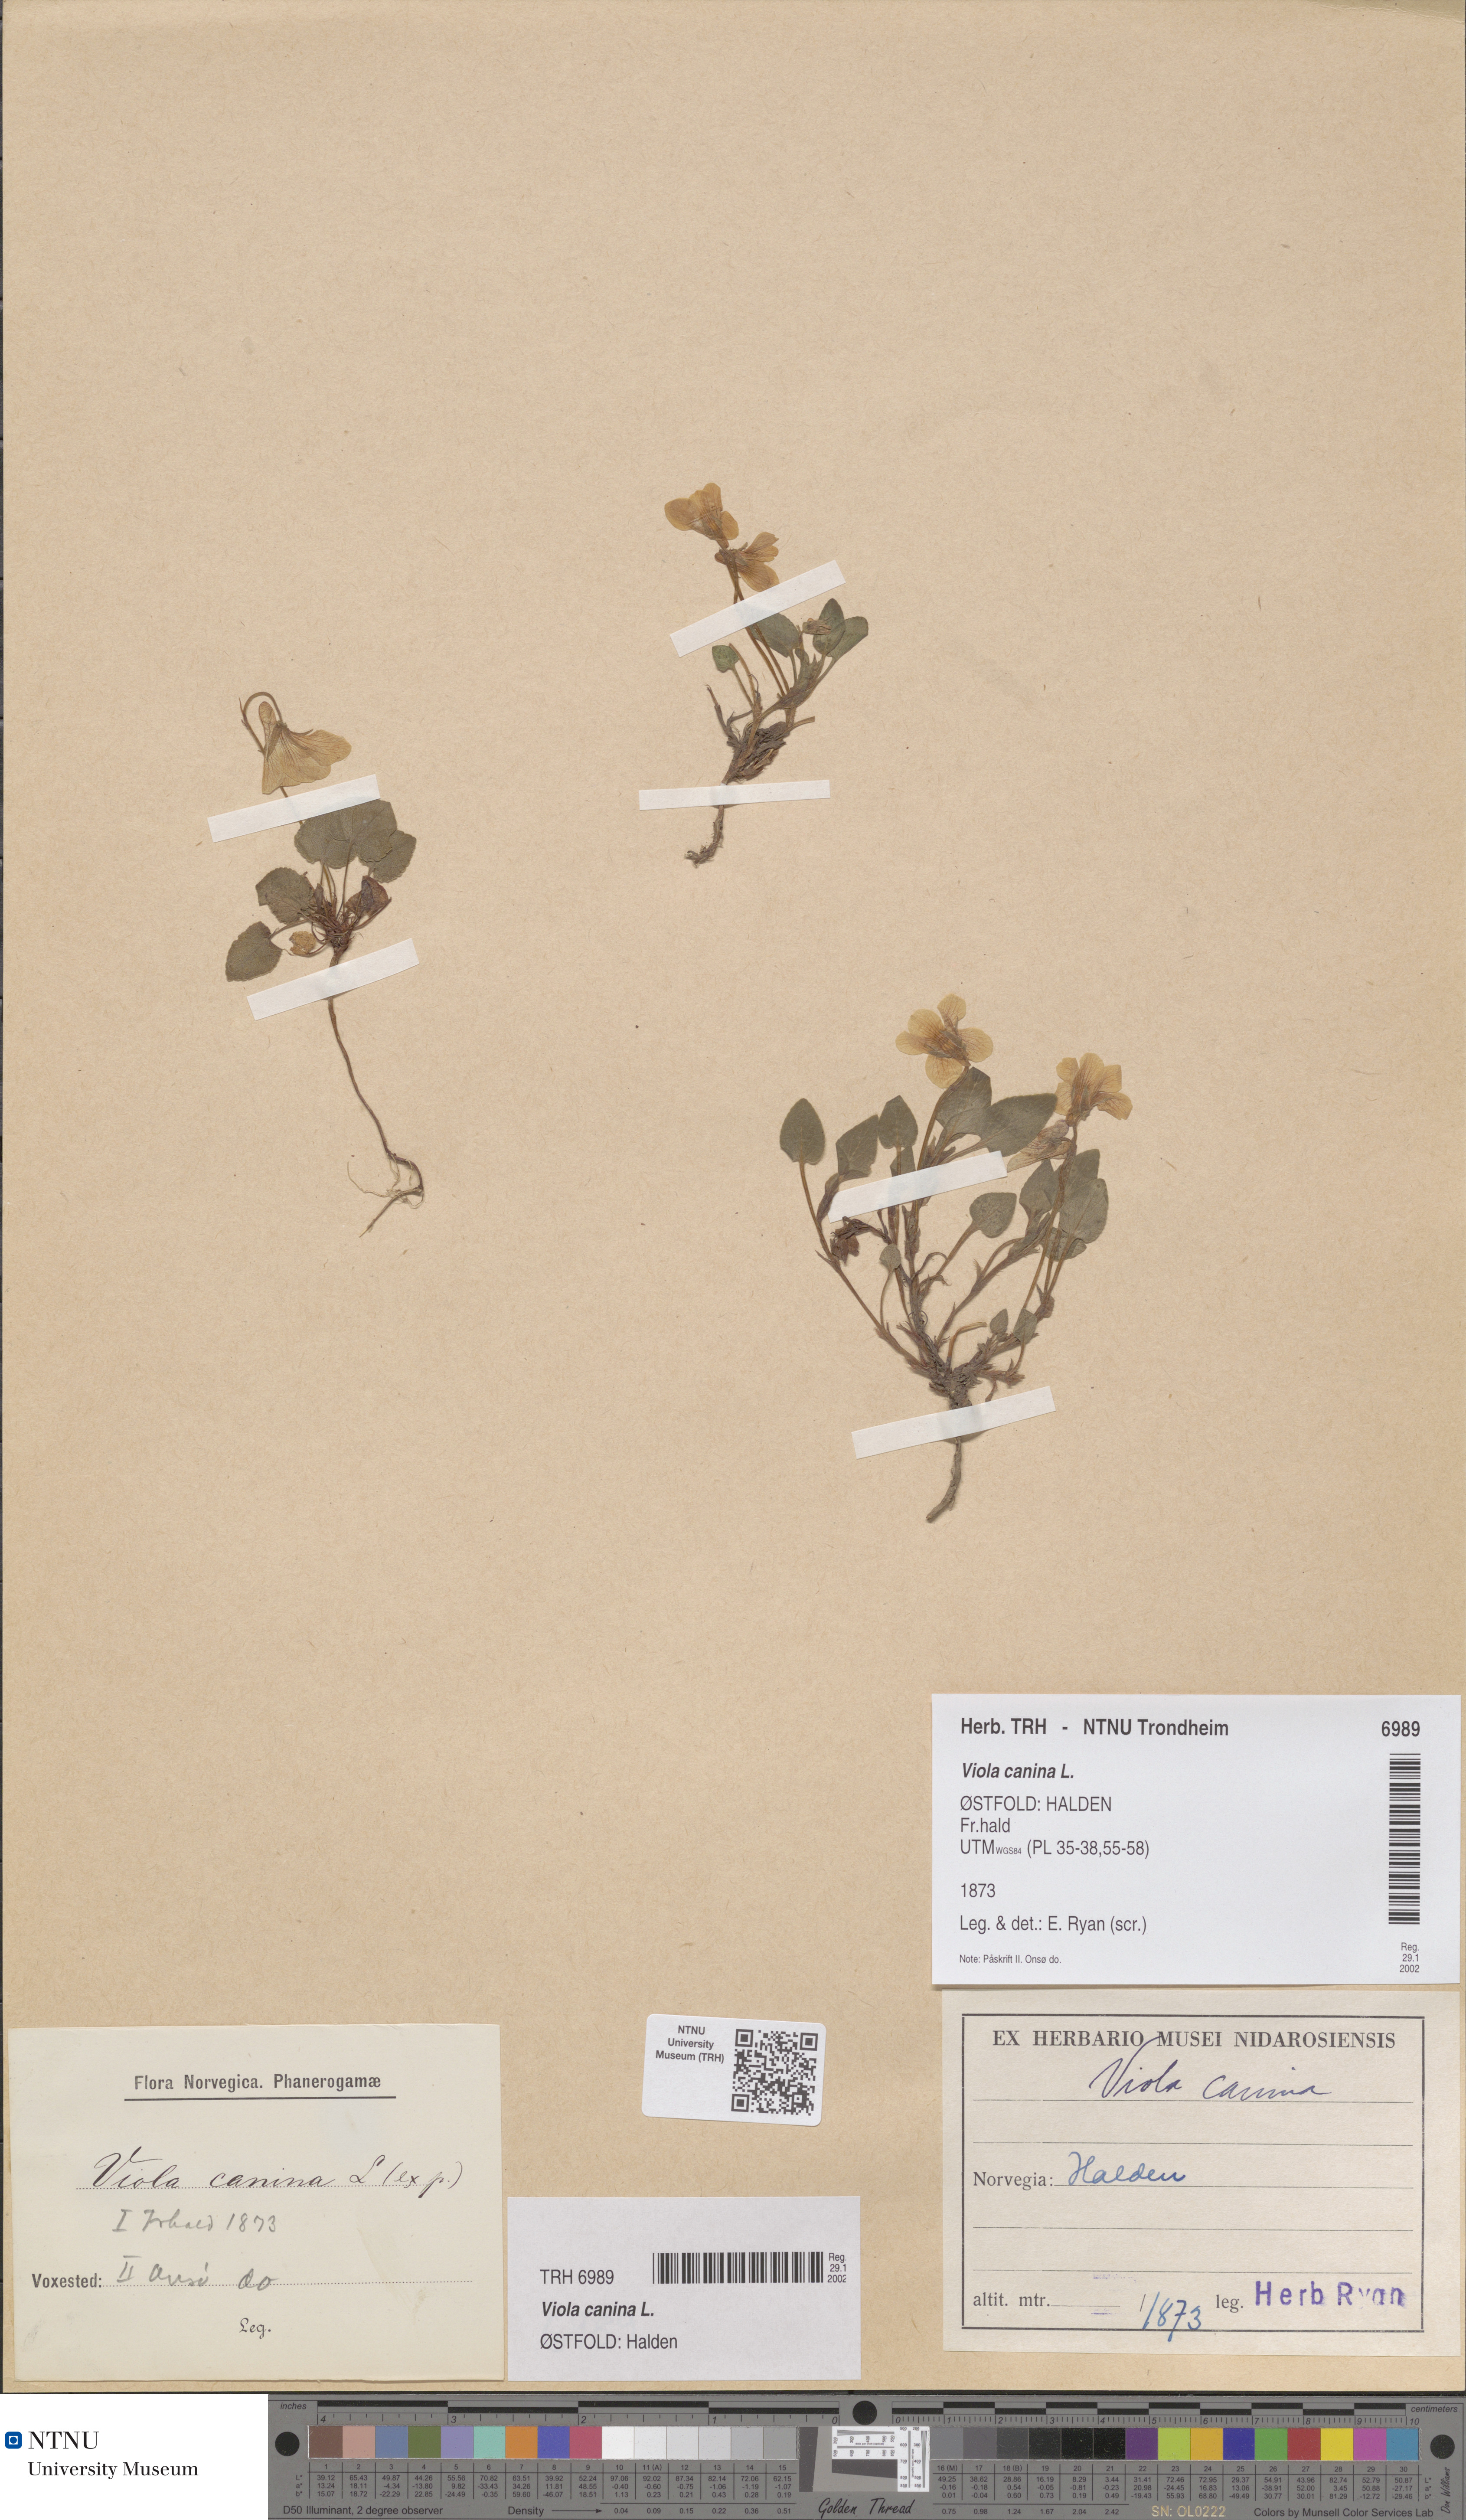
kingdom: Plantae
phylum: Tracheophyta
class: Magnoliopsida
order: Malpighiales
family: Violaceae
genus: Viola
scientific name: Viola canina
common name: Heath dog-violet
